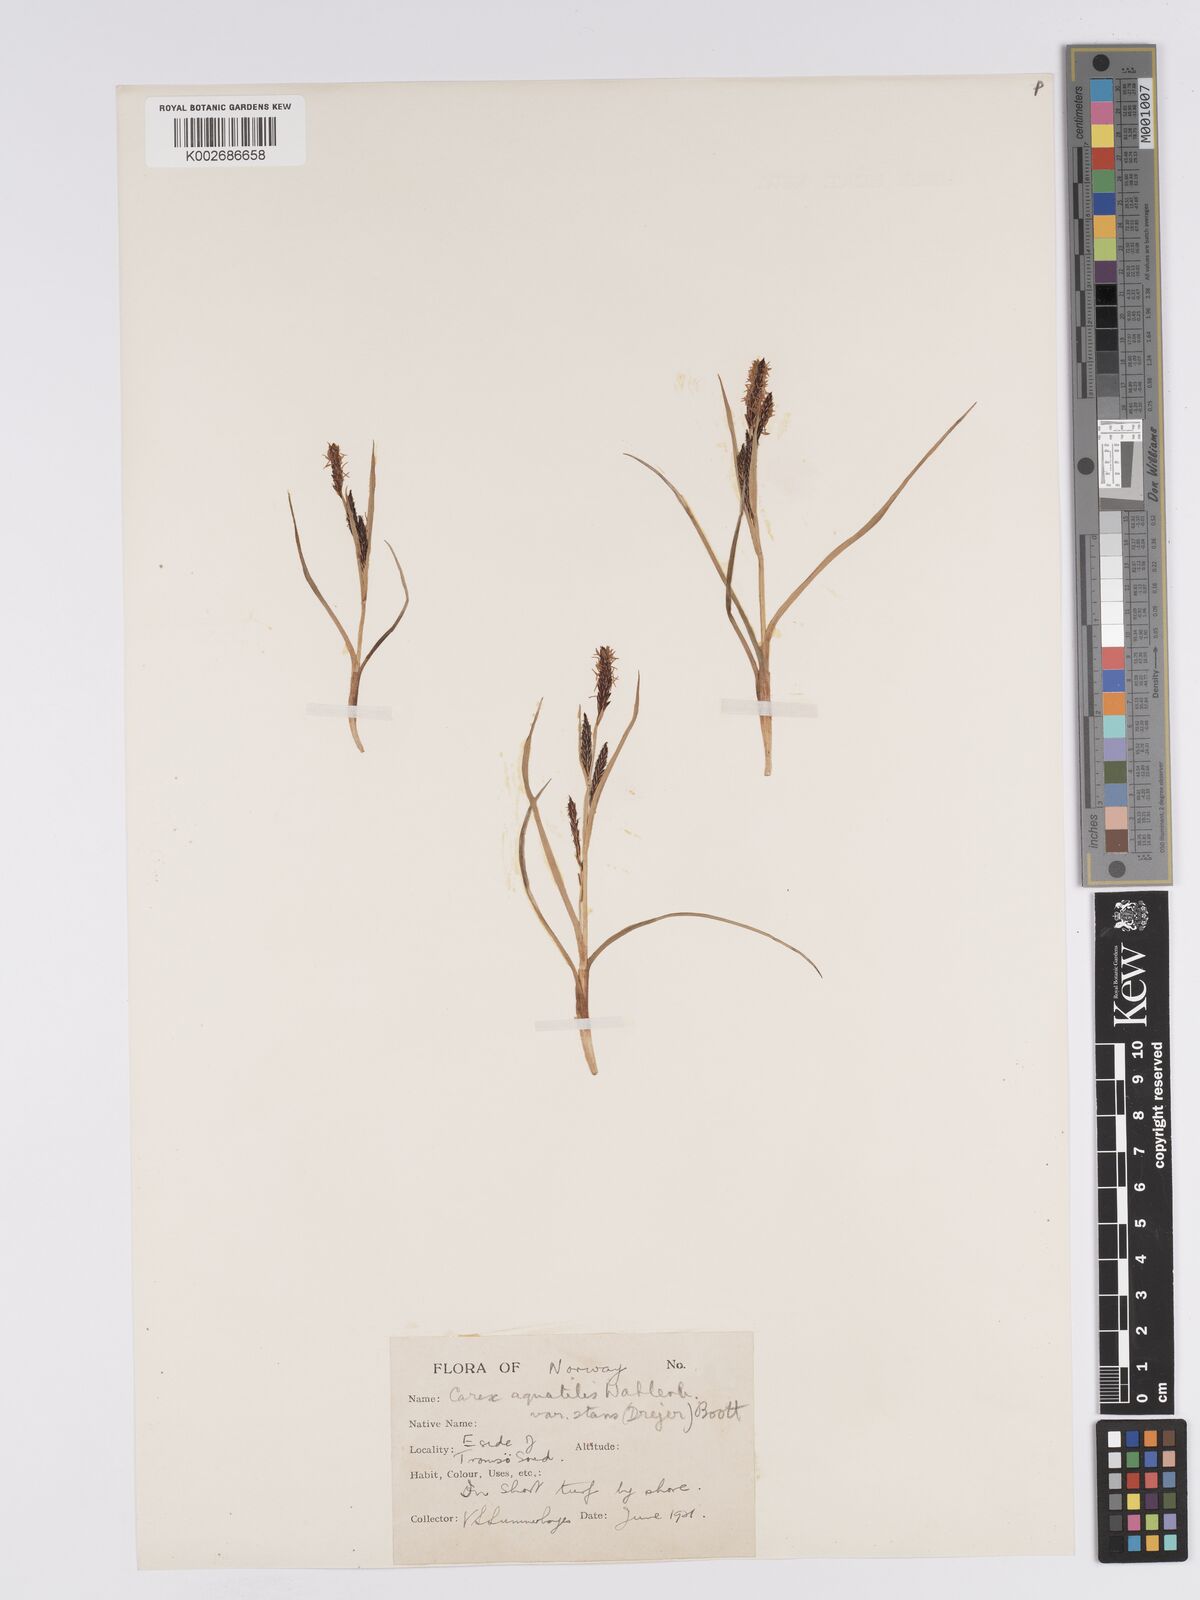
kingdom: Plantae
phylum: Tracheophyta
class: Liliopsida
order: Poales
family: Cyperaceae
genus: Carex
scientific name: Carex aquatilis
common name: Water sedge
